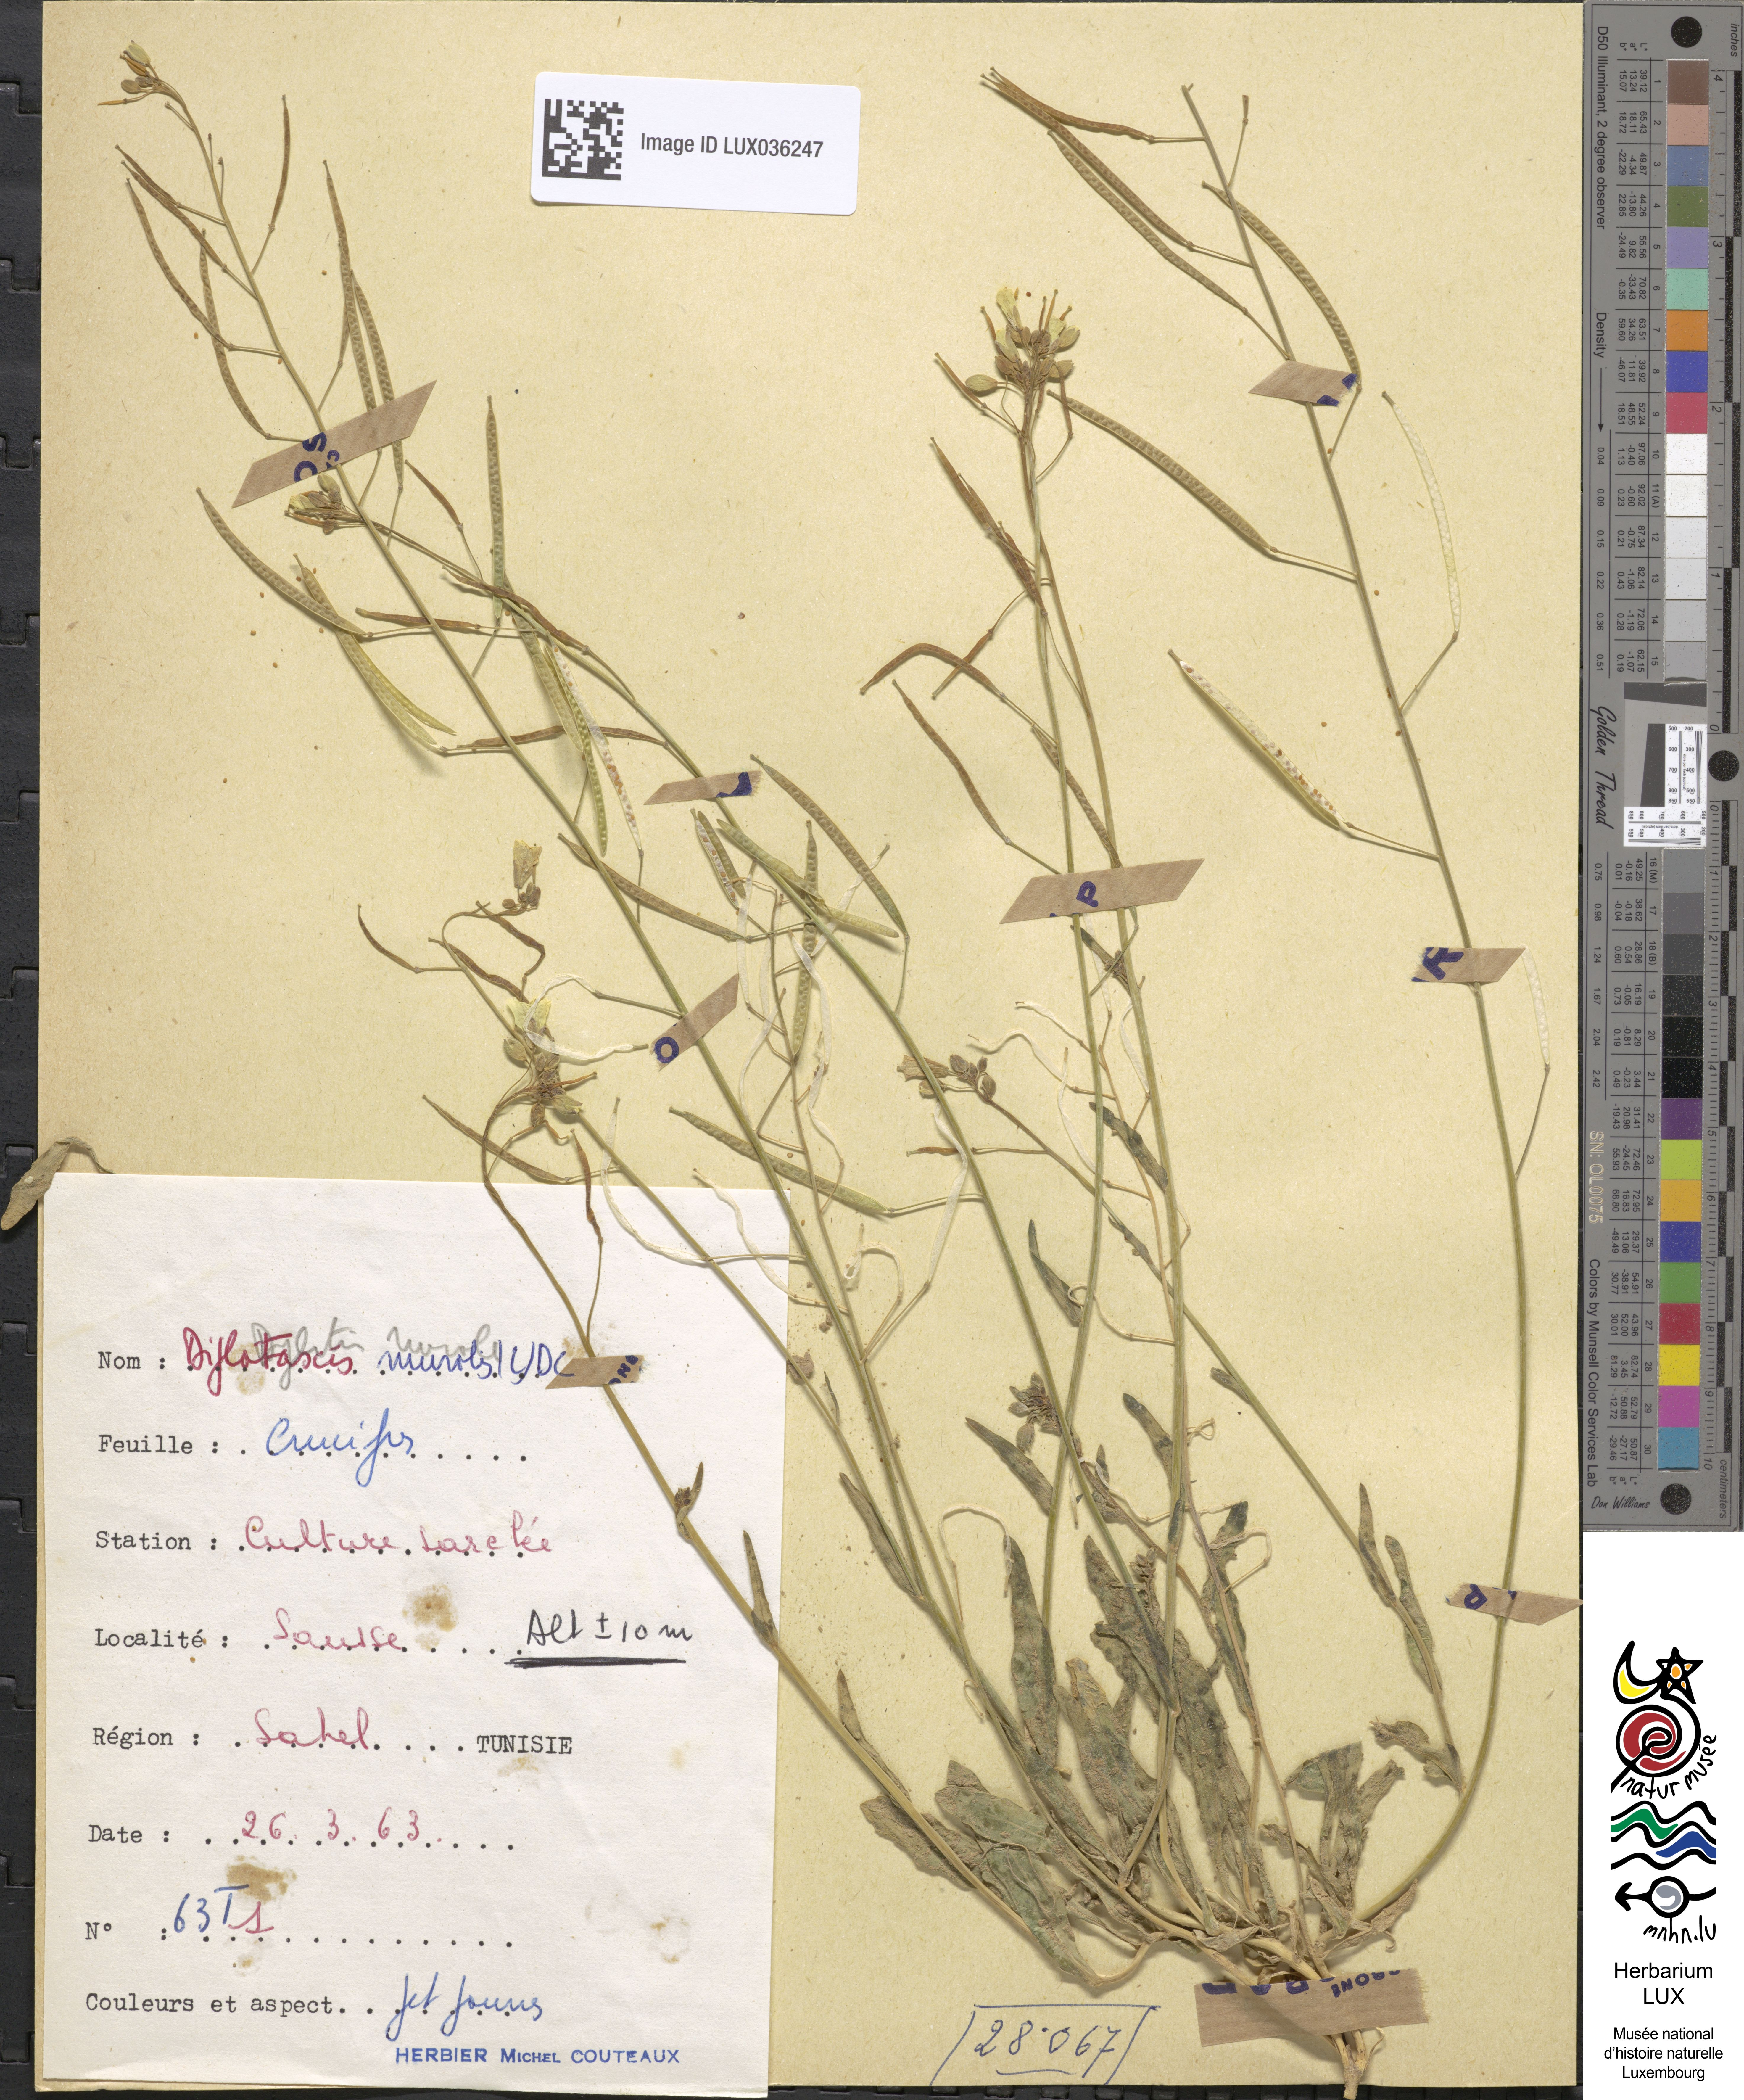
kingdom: Plantae
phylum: Tracheophyta
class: Magnoliopsida
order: Brassicales
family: Brassicaceae
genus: Diplotaxis
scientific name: Diplotaxis muralis
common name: Annual wall-rocket
